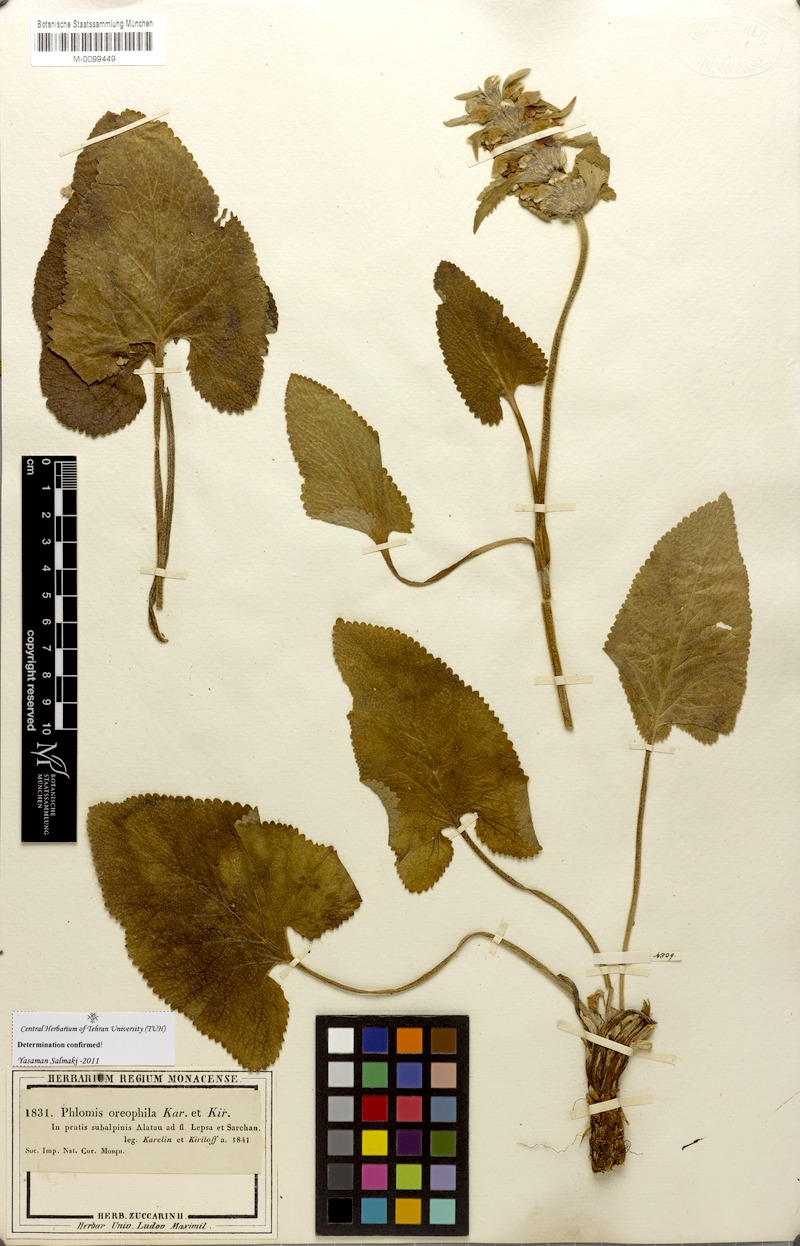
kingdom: Plantae
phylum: Tracheophyta
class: Magnoliopsida
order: Lamiales
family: Lamiaceae
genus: Phlomoides
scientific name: Phlomoides oreophila
